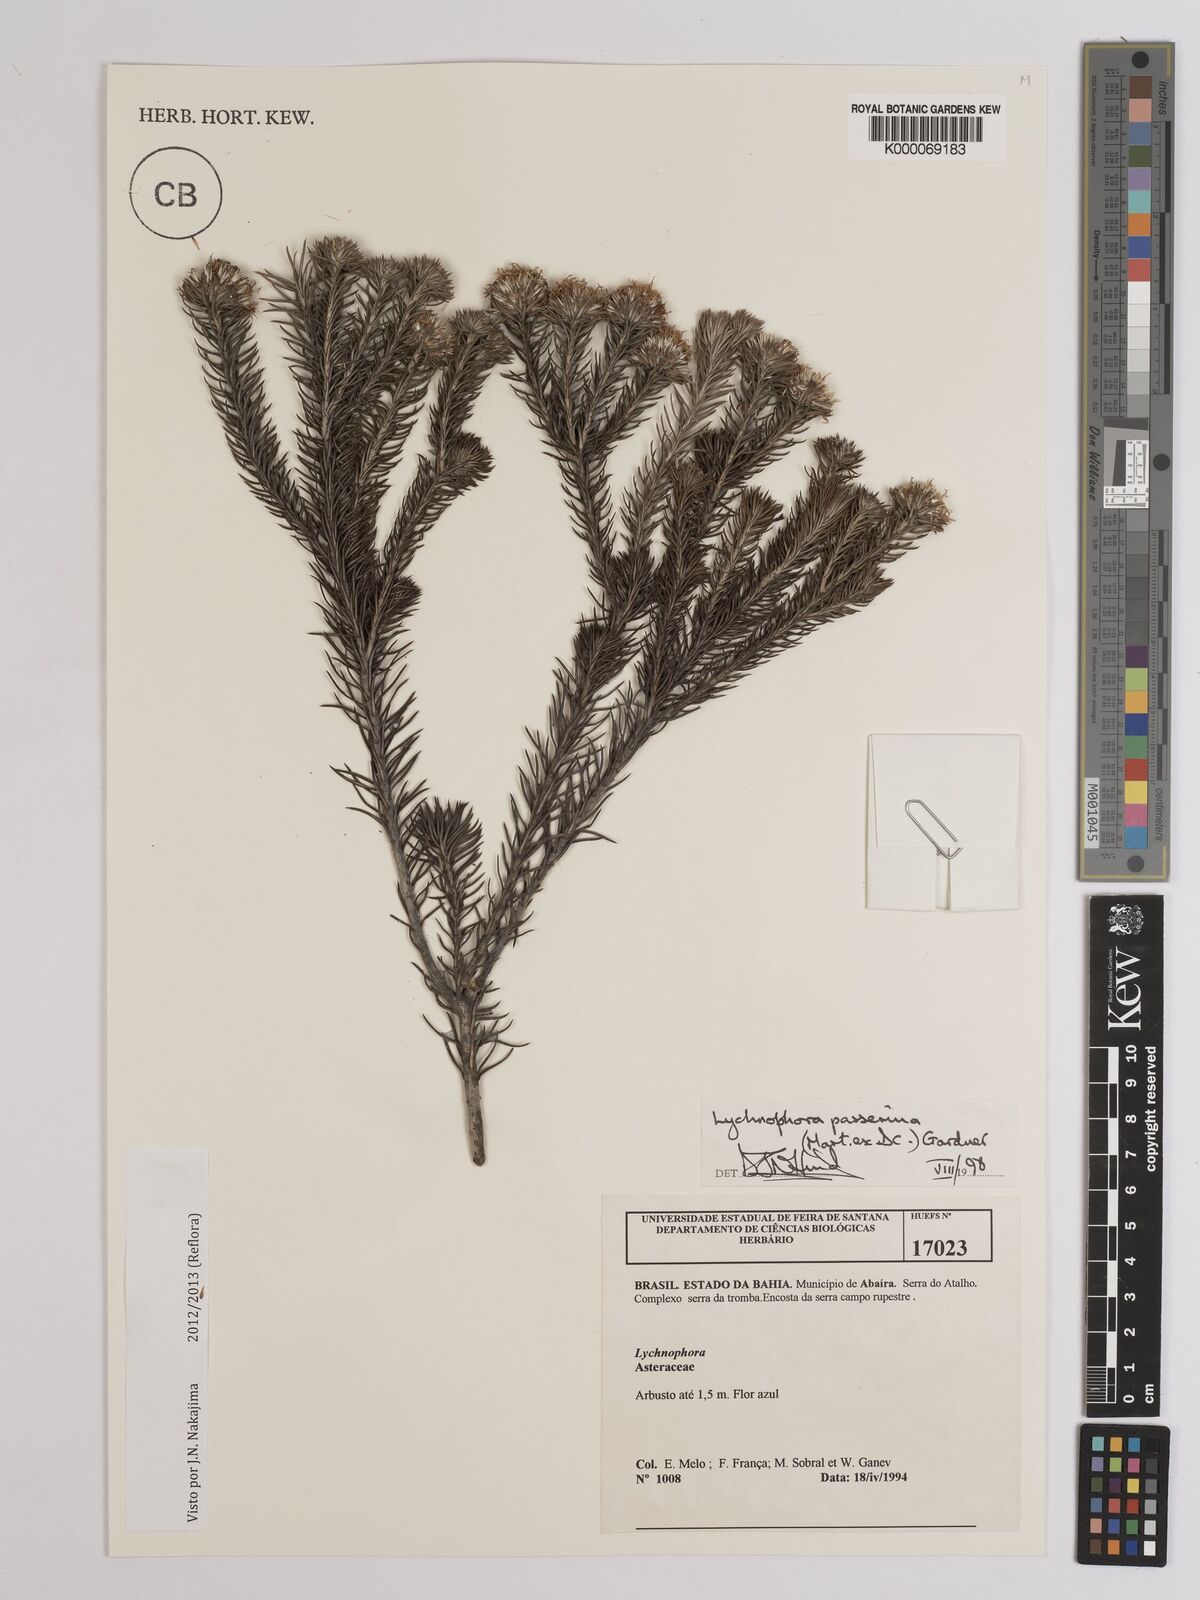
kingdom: Plantae
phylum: Tracheophyta
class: Magnoliopsida
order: Asterales
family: Asteraceae
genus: Lychnophora
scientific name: Lychnophora passerina
